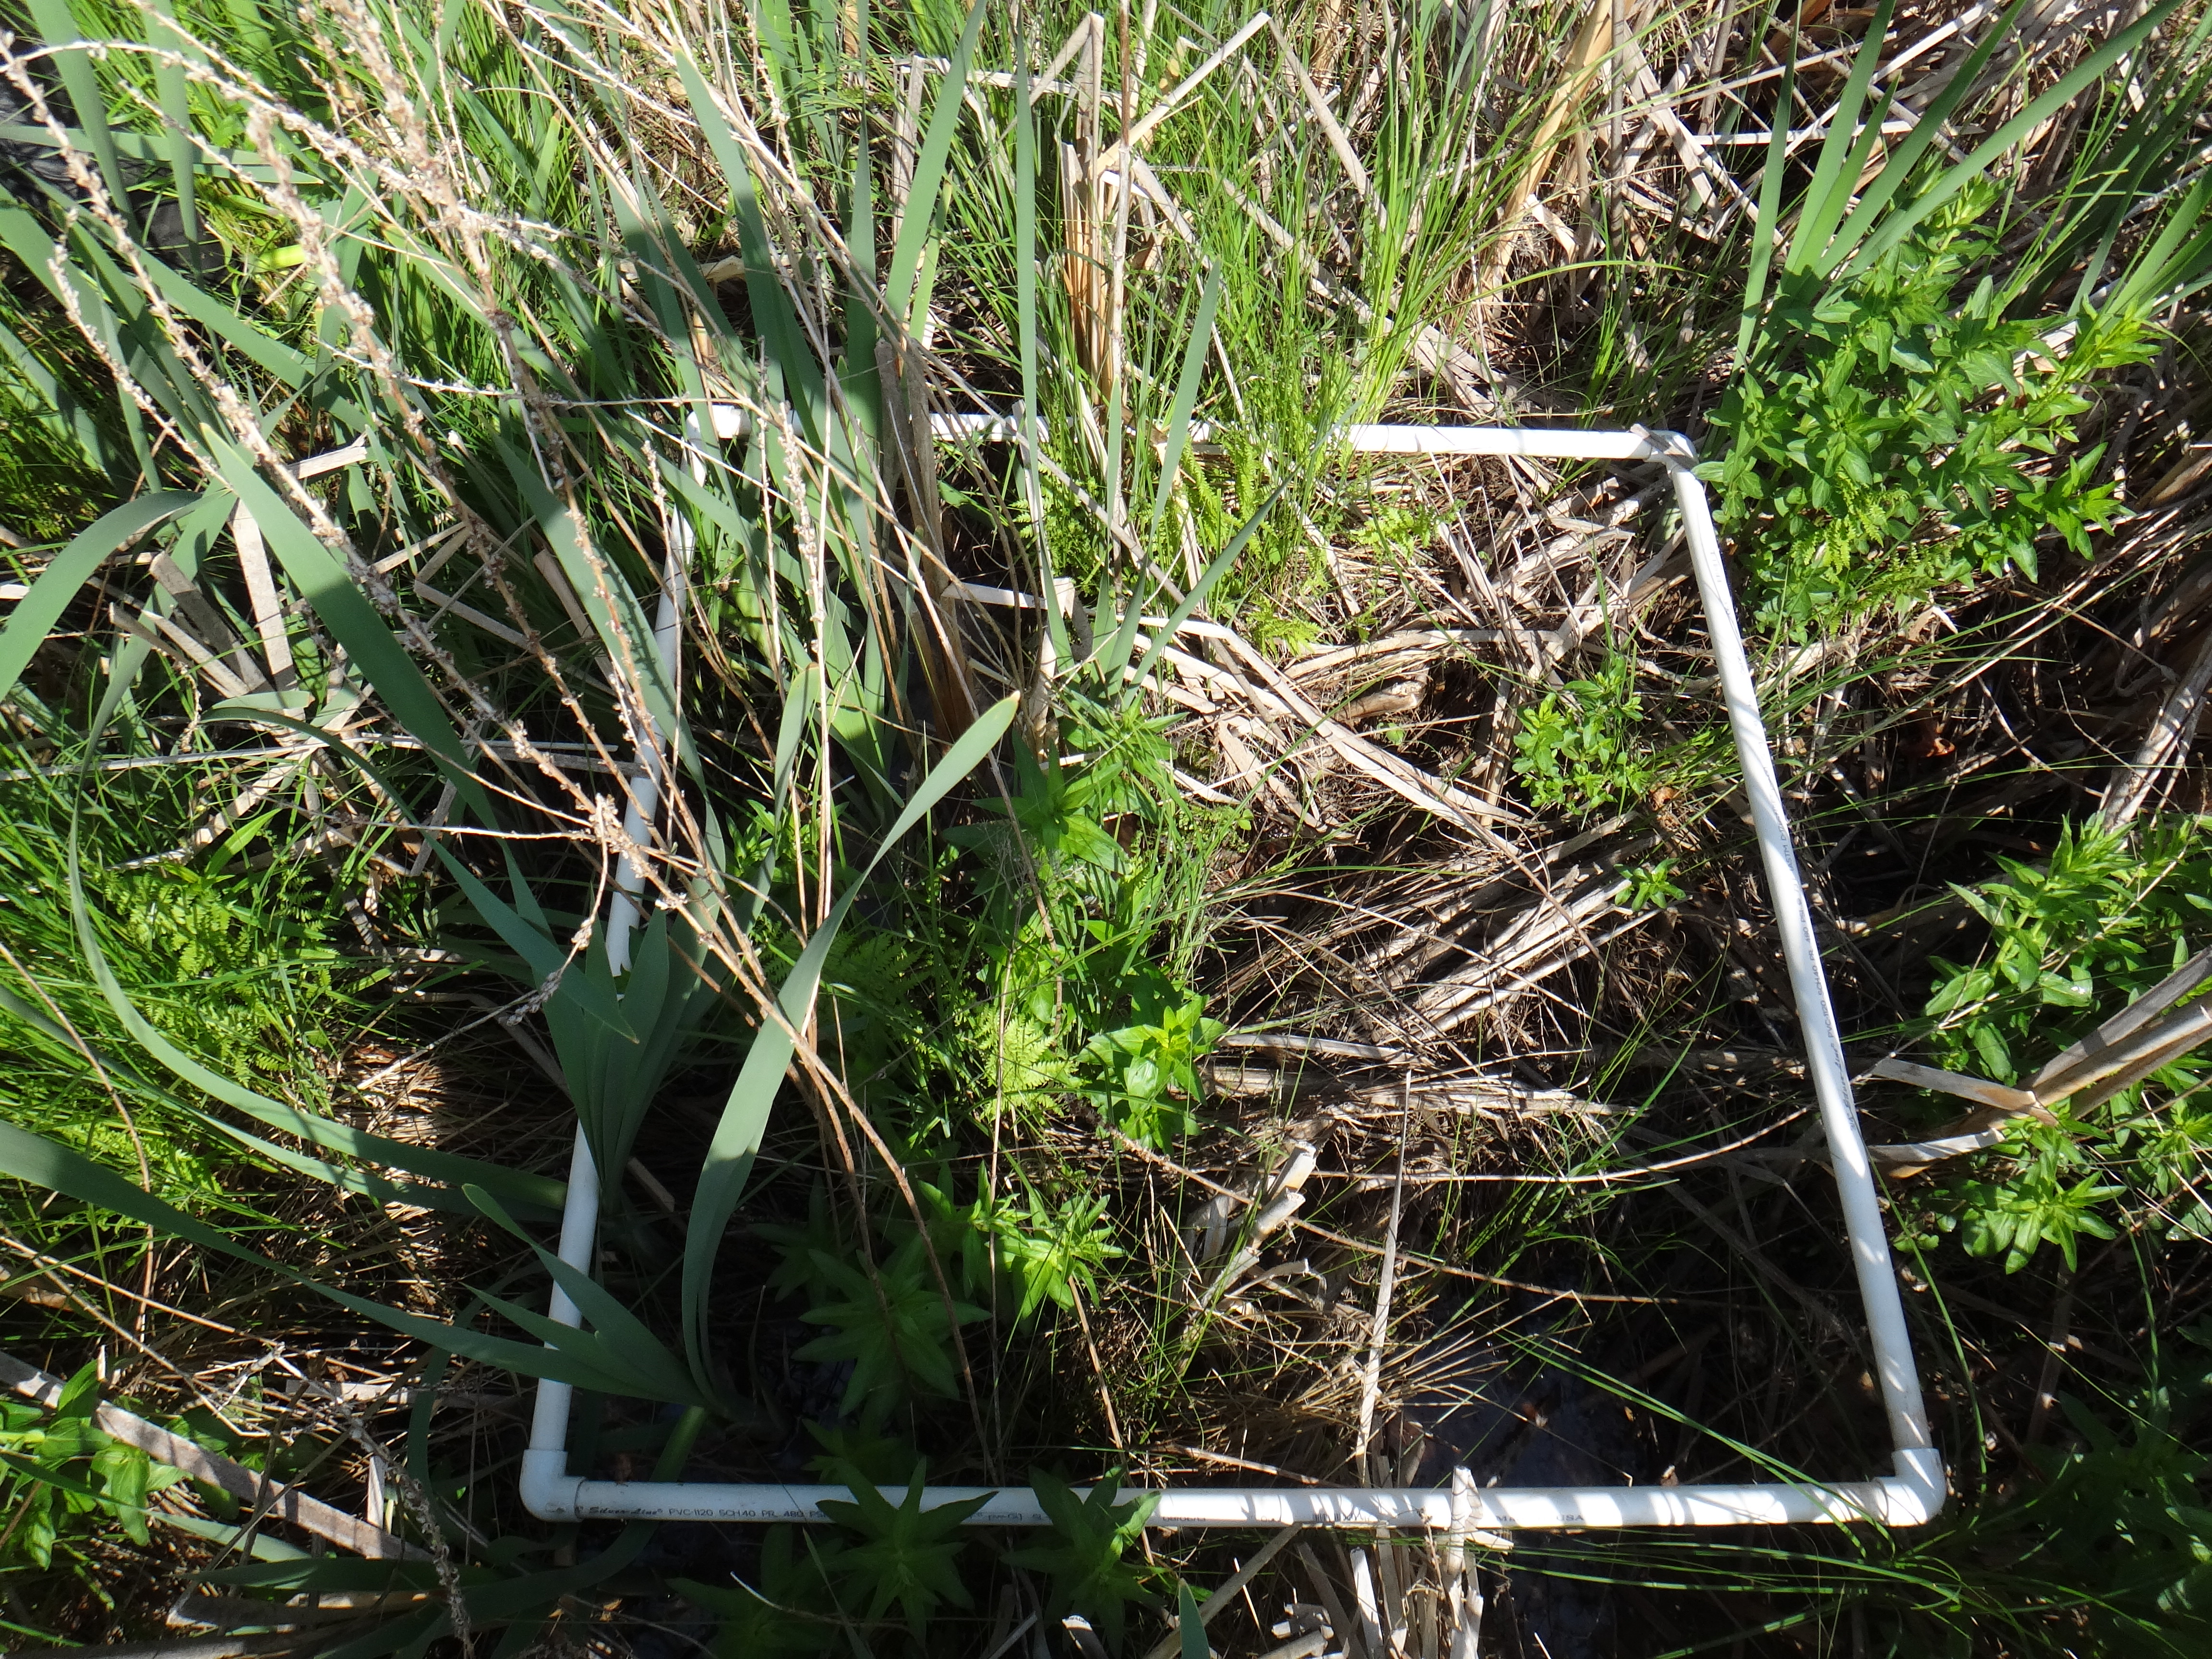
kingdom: Plantae
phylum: Tracheophyta
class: Liliopsida
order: Poales
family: Typhaceae
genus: Typha
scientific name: Typha latifolia
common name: Broadleaf cattail
